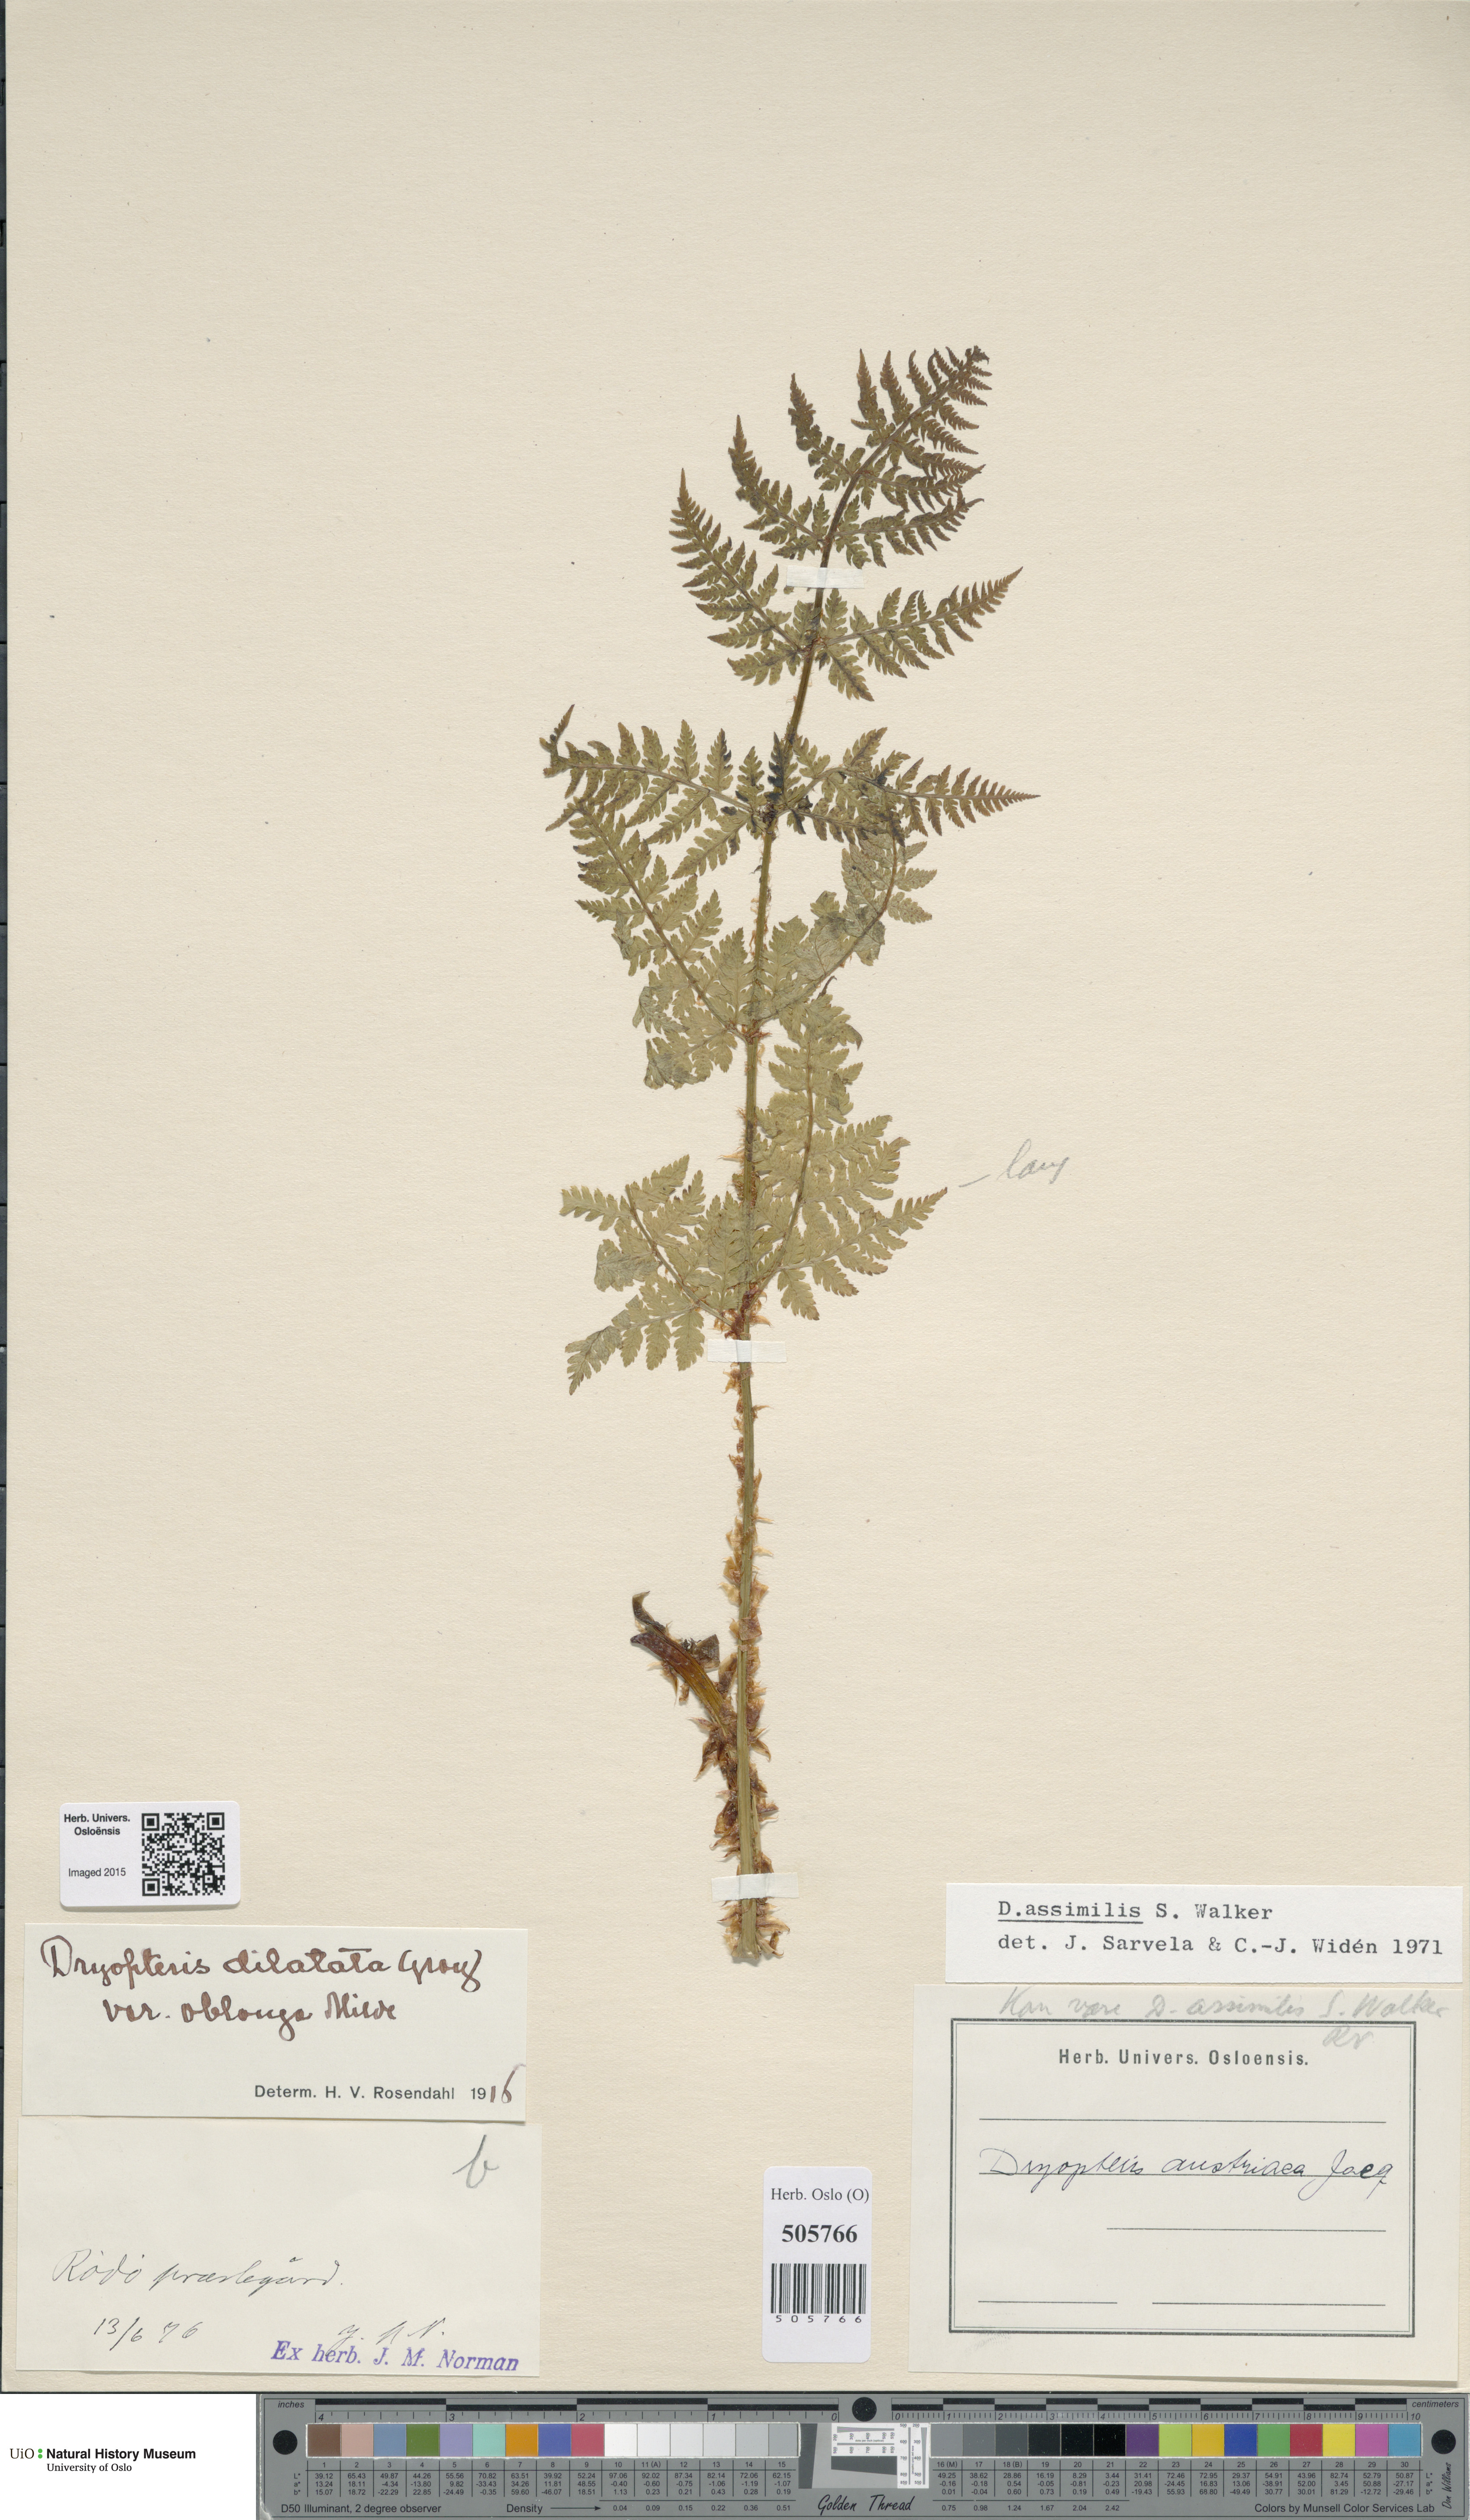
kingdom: Plantae
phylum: Tracheophyta
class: Polypodiopsida
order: Polypodiales
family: Dryopteridaceae
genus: Dryopteris
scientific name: Dryopteris expansa
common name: Northern buckler fern
